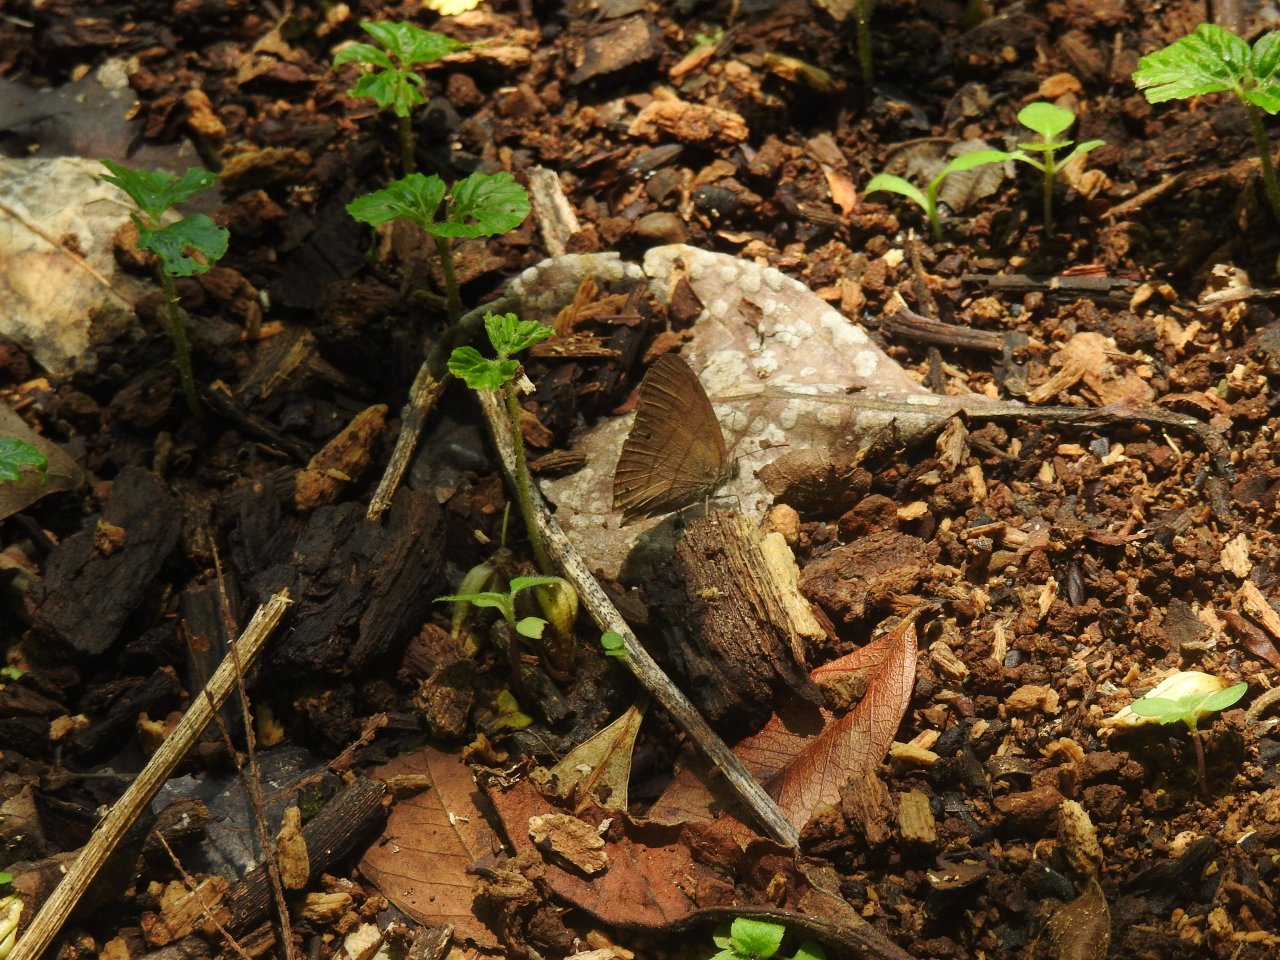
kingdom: Animalia
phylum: Arthropoda
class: Insecta
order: Lepidoptera
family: Nymphalidae
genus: Satyrotaygetis
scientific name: Satyrotaygetis satyrina
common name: Wide-bordered Satyr
